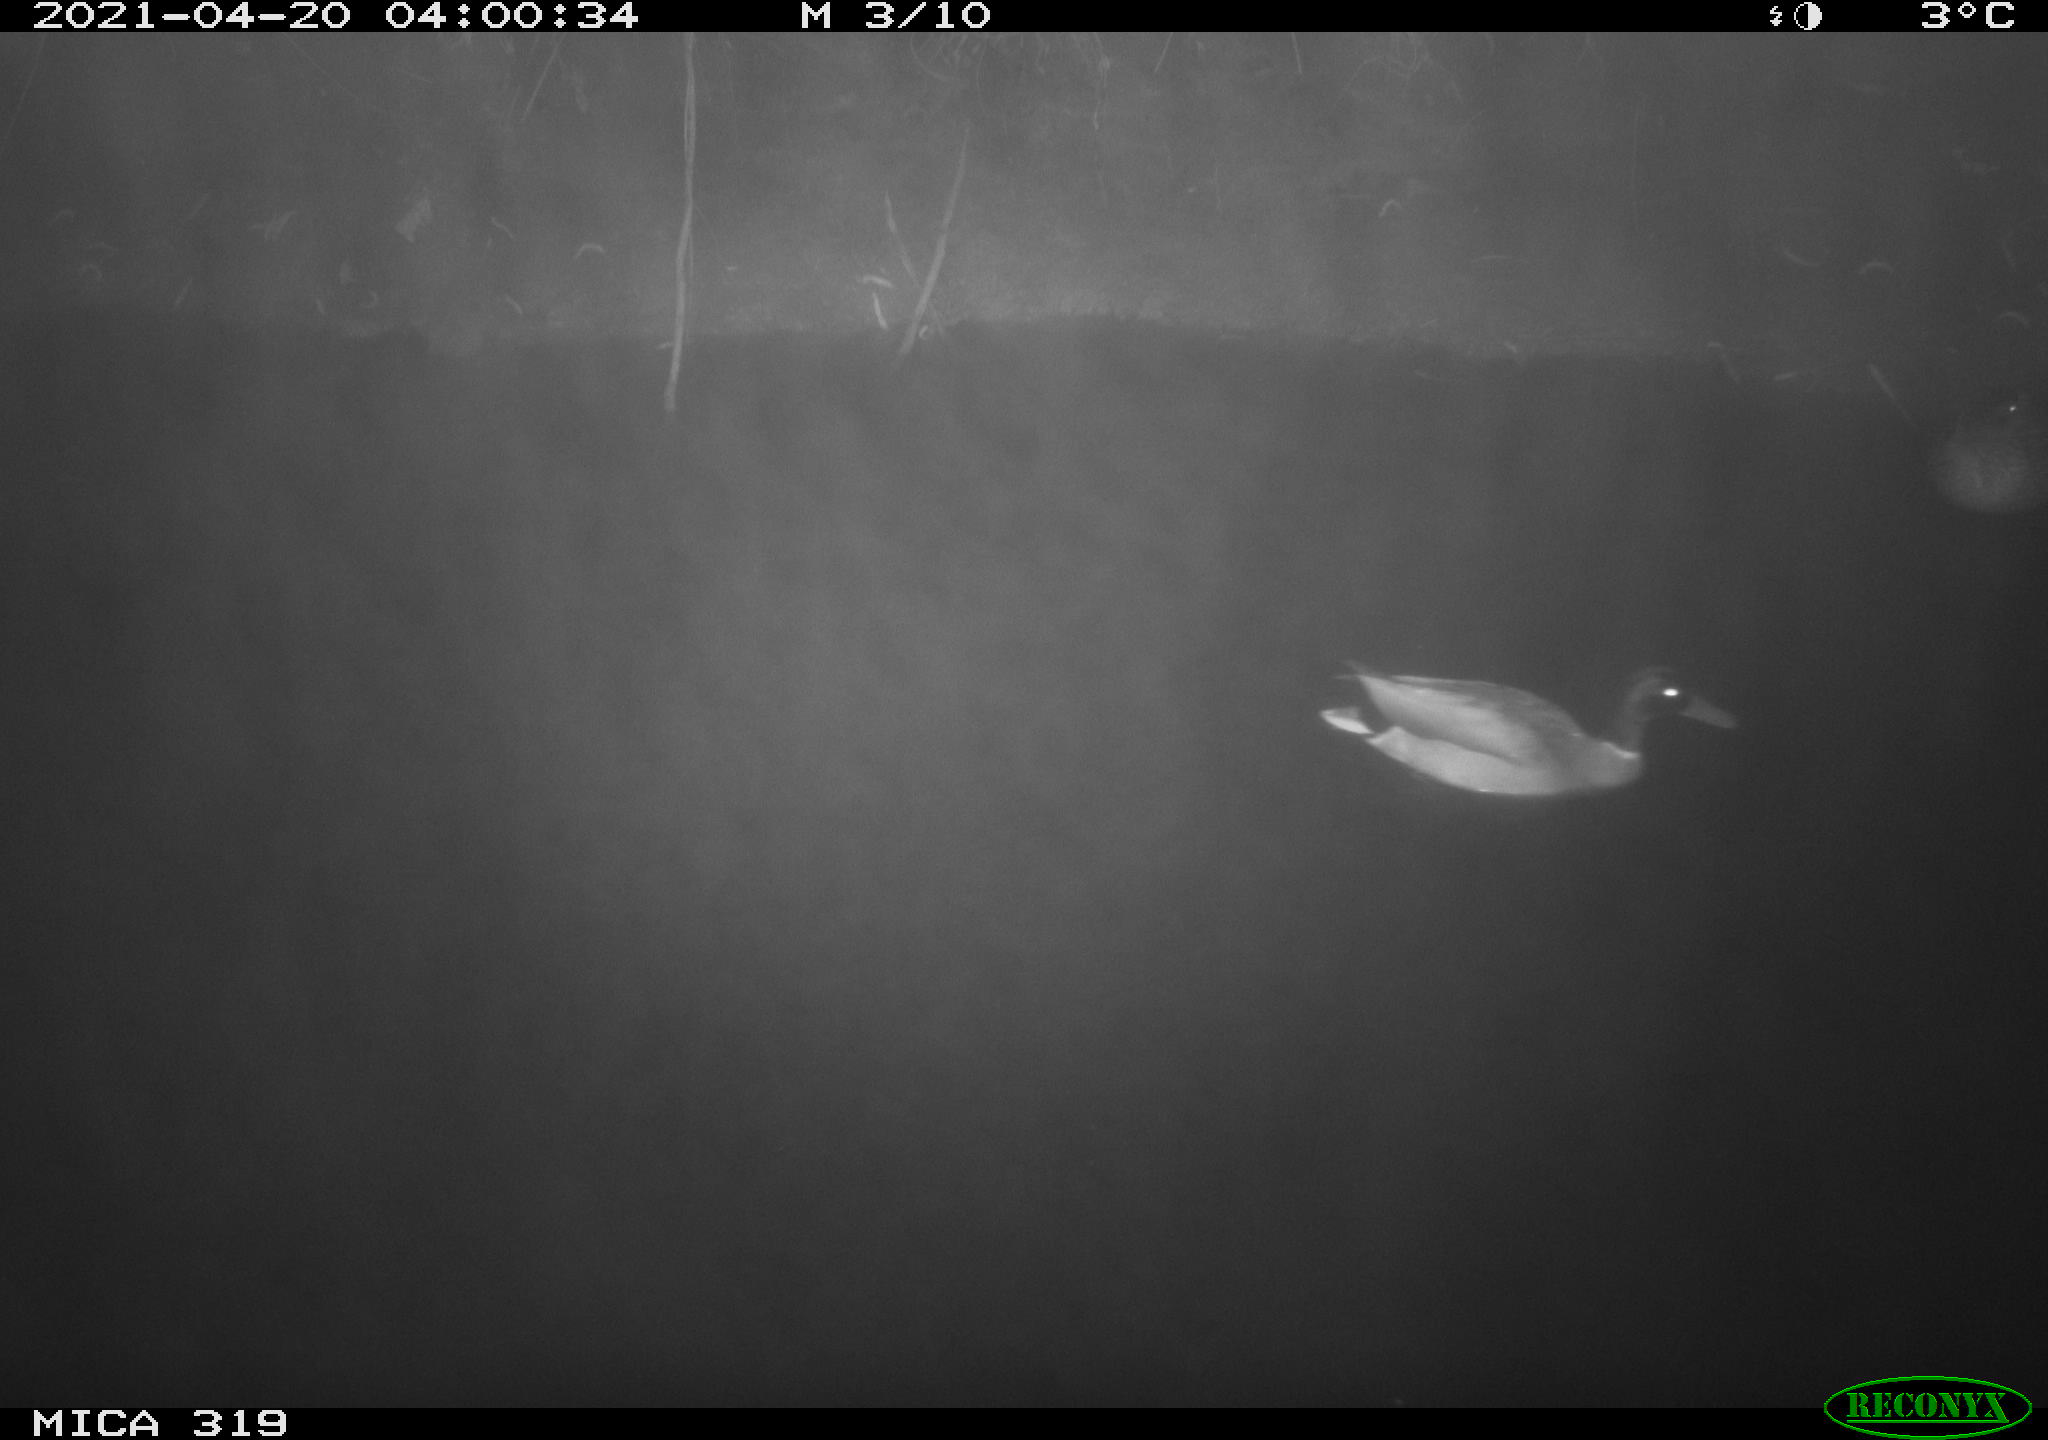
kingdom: Animalia
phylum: Chordata
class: Aves
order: Anseriformes
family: Anatidae
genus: Anas
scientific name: Anas platyrhynchos
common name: Mallard
